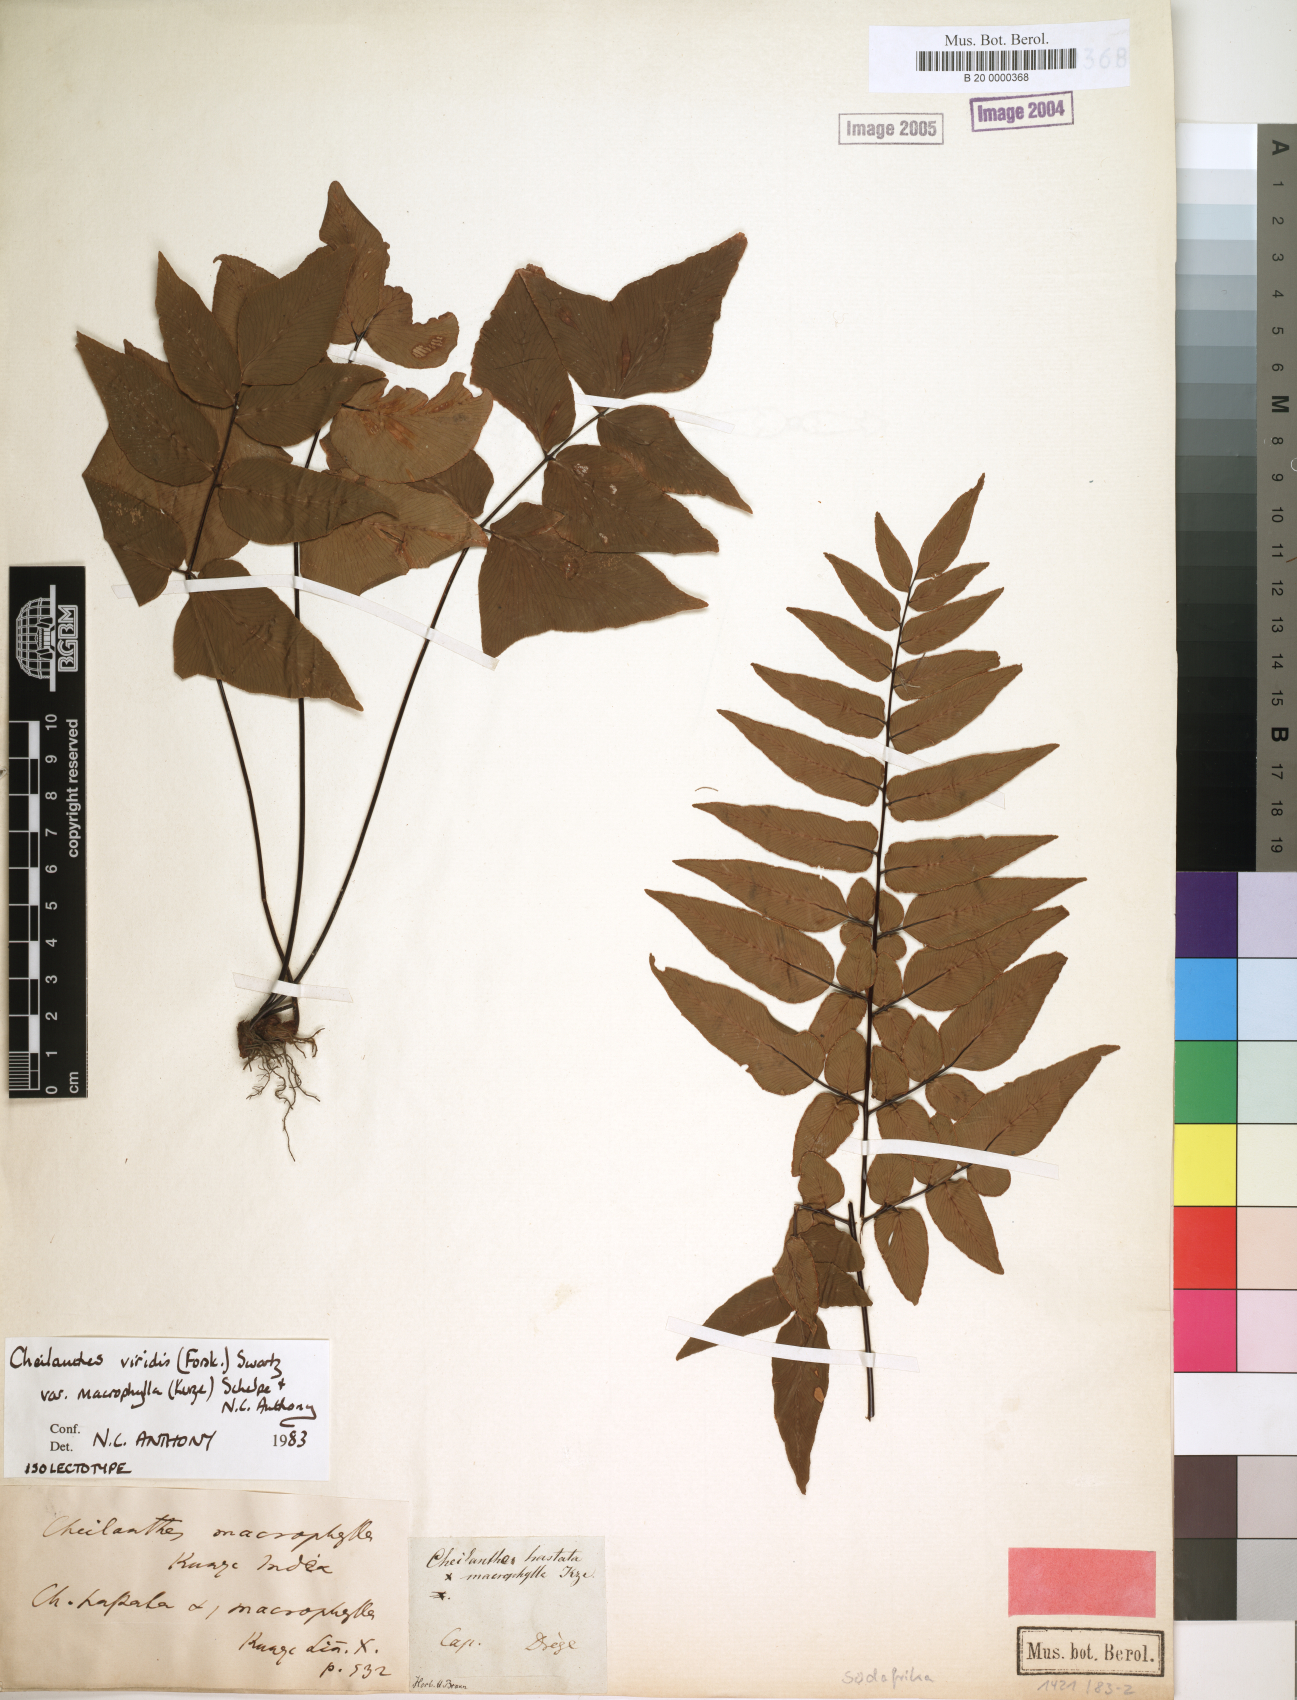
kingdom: Plantae
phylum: Tracheophyta
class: Polypodiopsida
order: Polypodiales
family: Pteridaceae
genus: Cheilanthes
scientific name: Cheilanthes viridis
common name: Green cliffbrake
